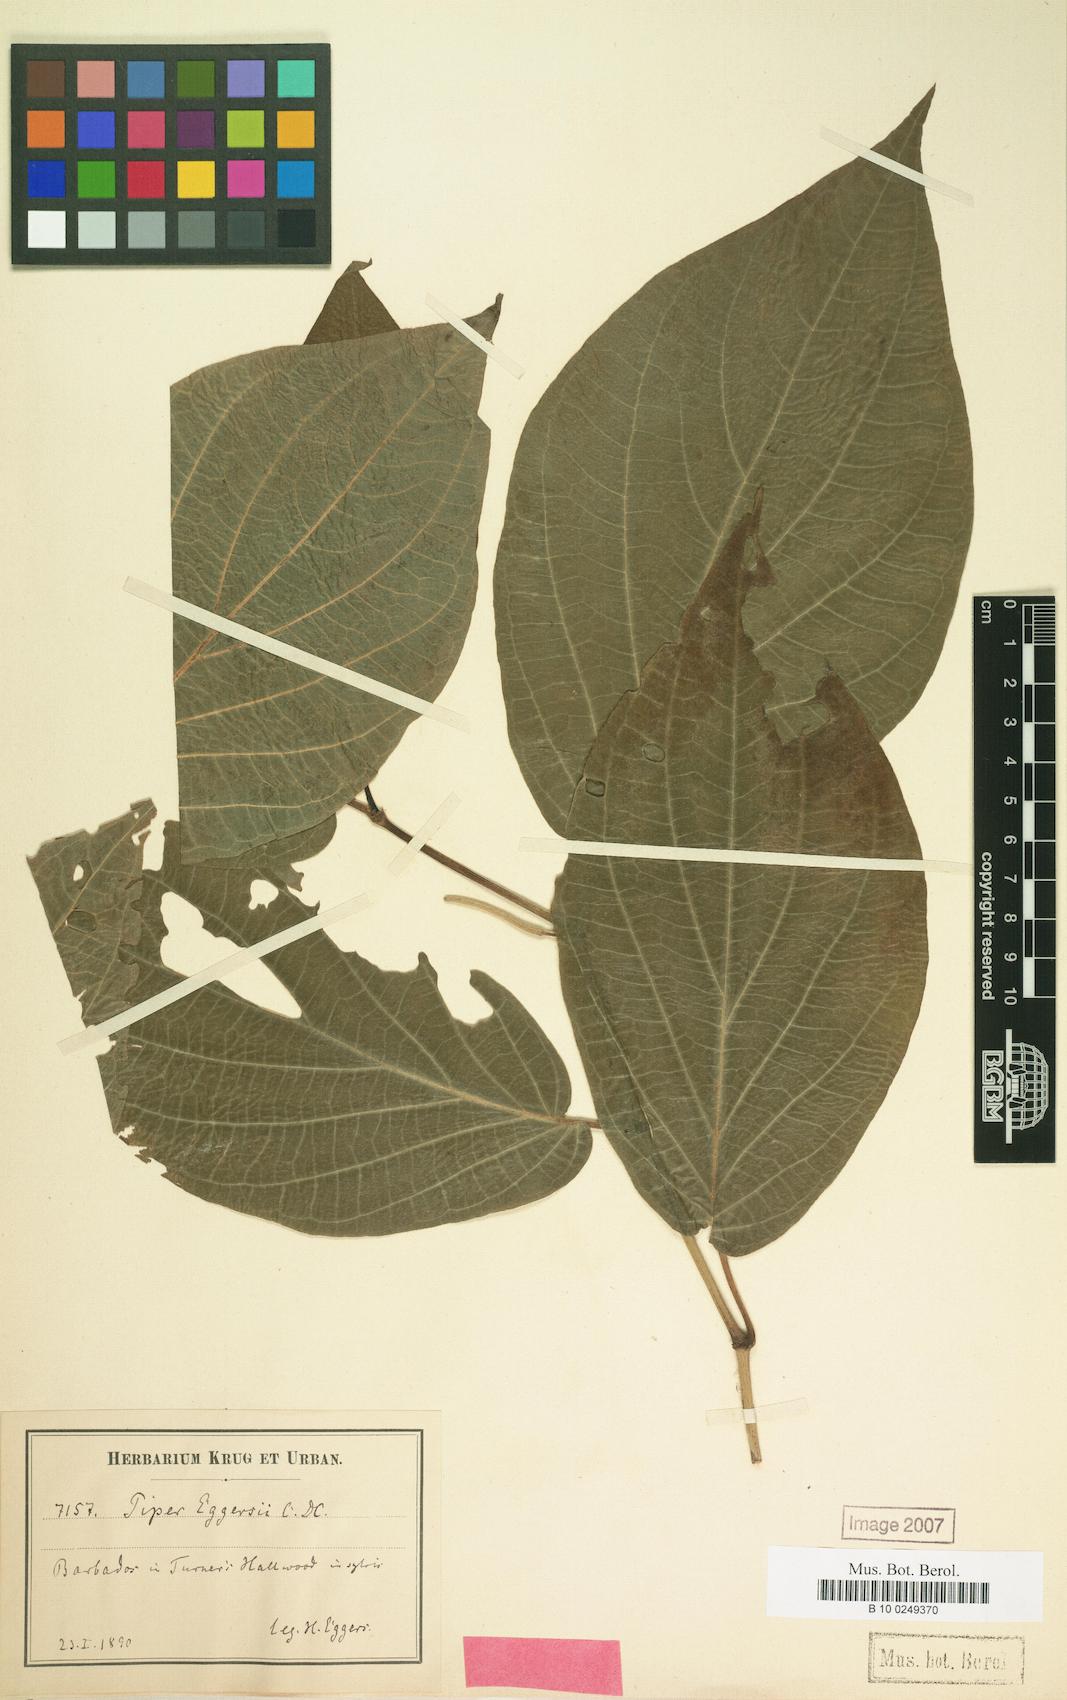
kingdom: Plantae
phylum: Tracheophyta
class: Magnoliopsida
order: Piperales
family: Piperaceae
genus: Piper
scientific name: Piper dilatatum
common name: Higuillo
